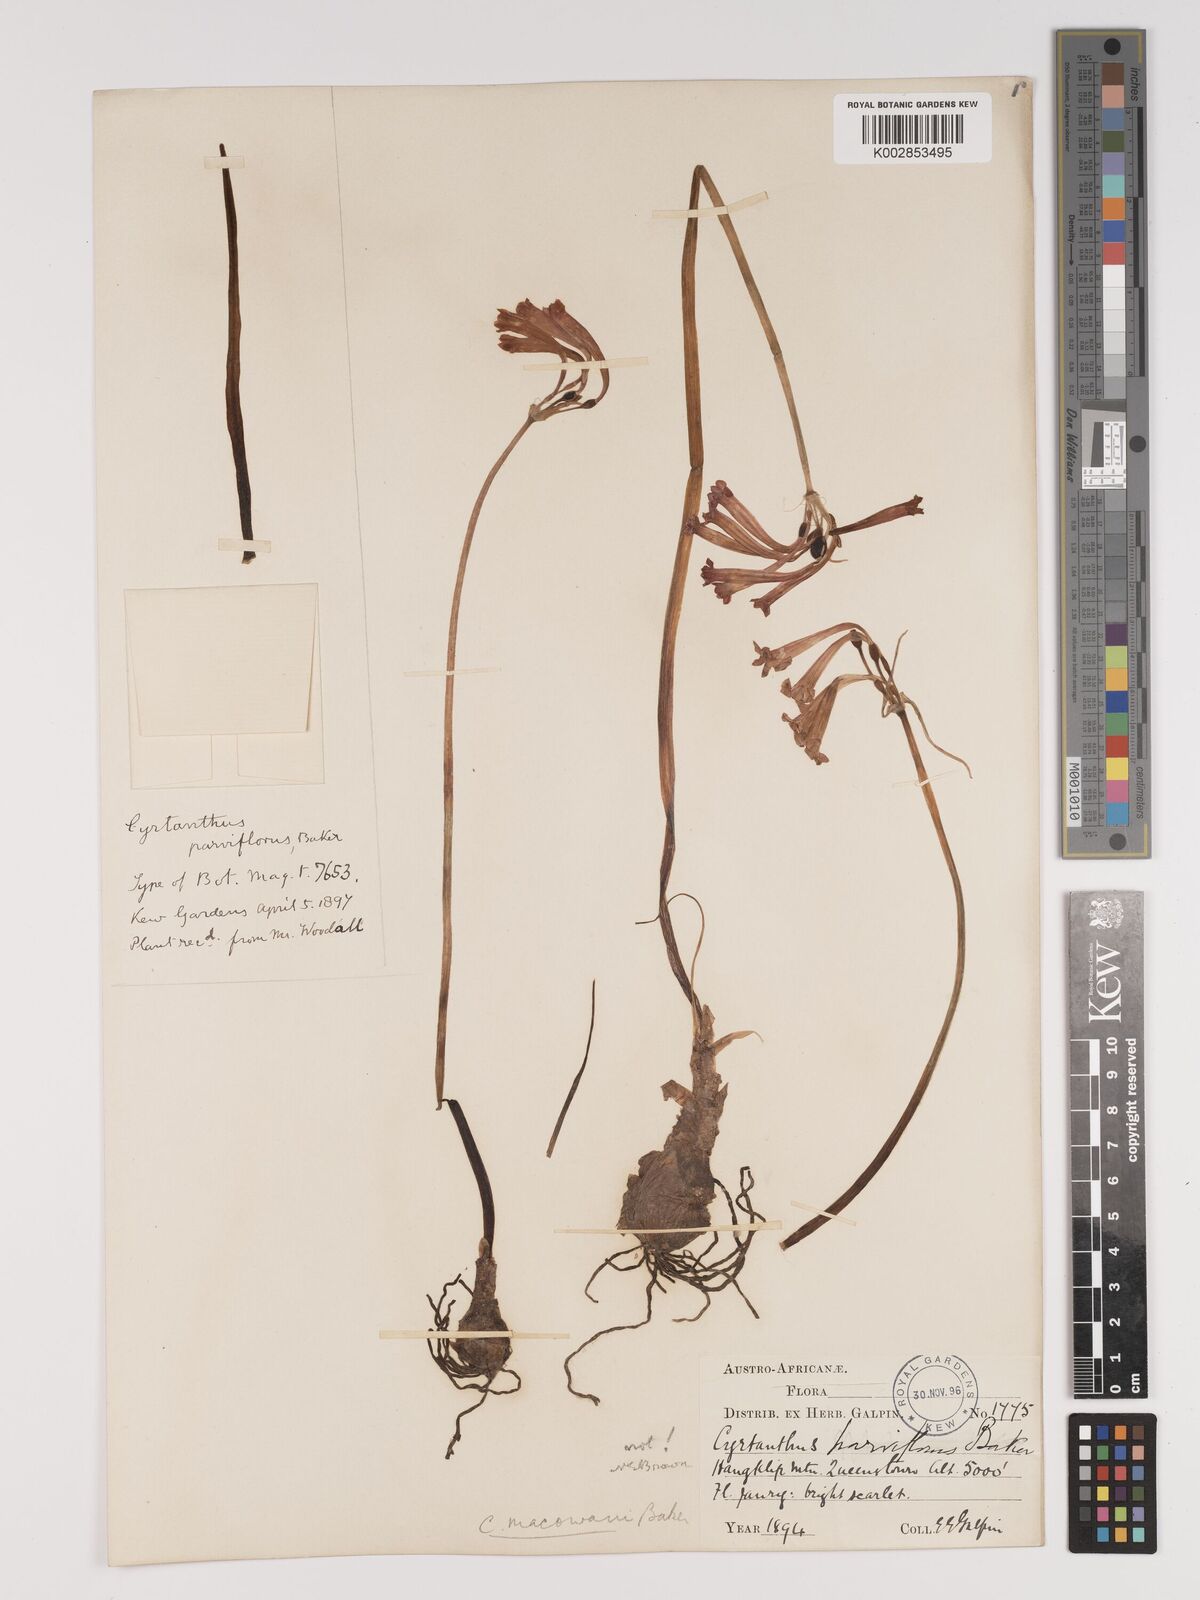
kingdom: Plantae
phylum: Tracheophyta
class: Liliopsida
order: Asparagales
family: Amaryllidaceae
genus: Cyrtanthus
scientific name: Cyrtanthus macowanii
